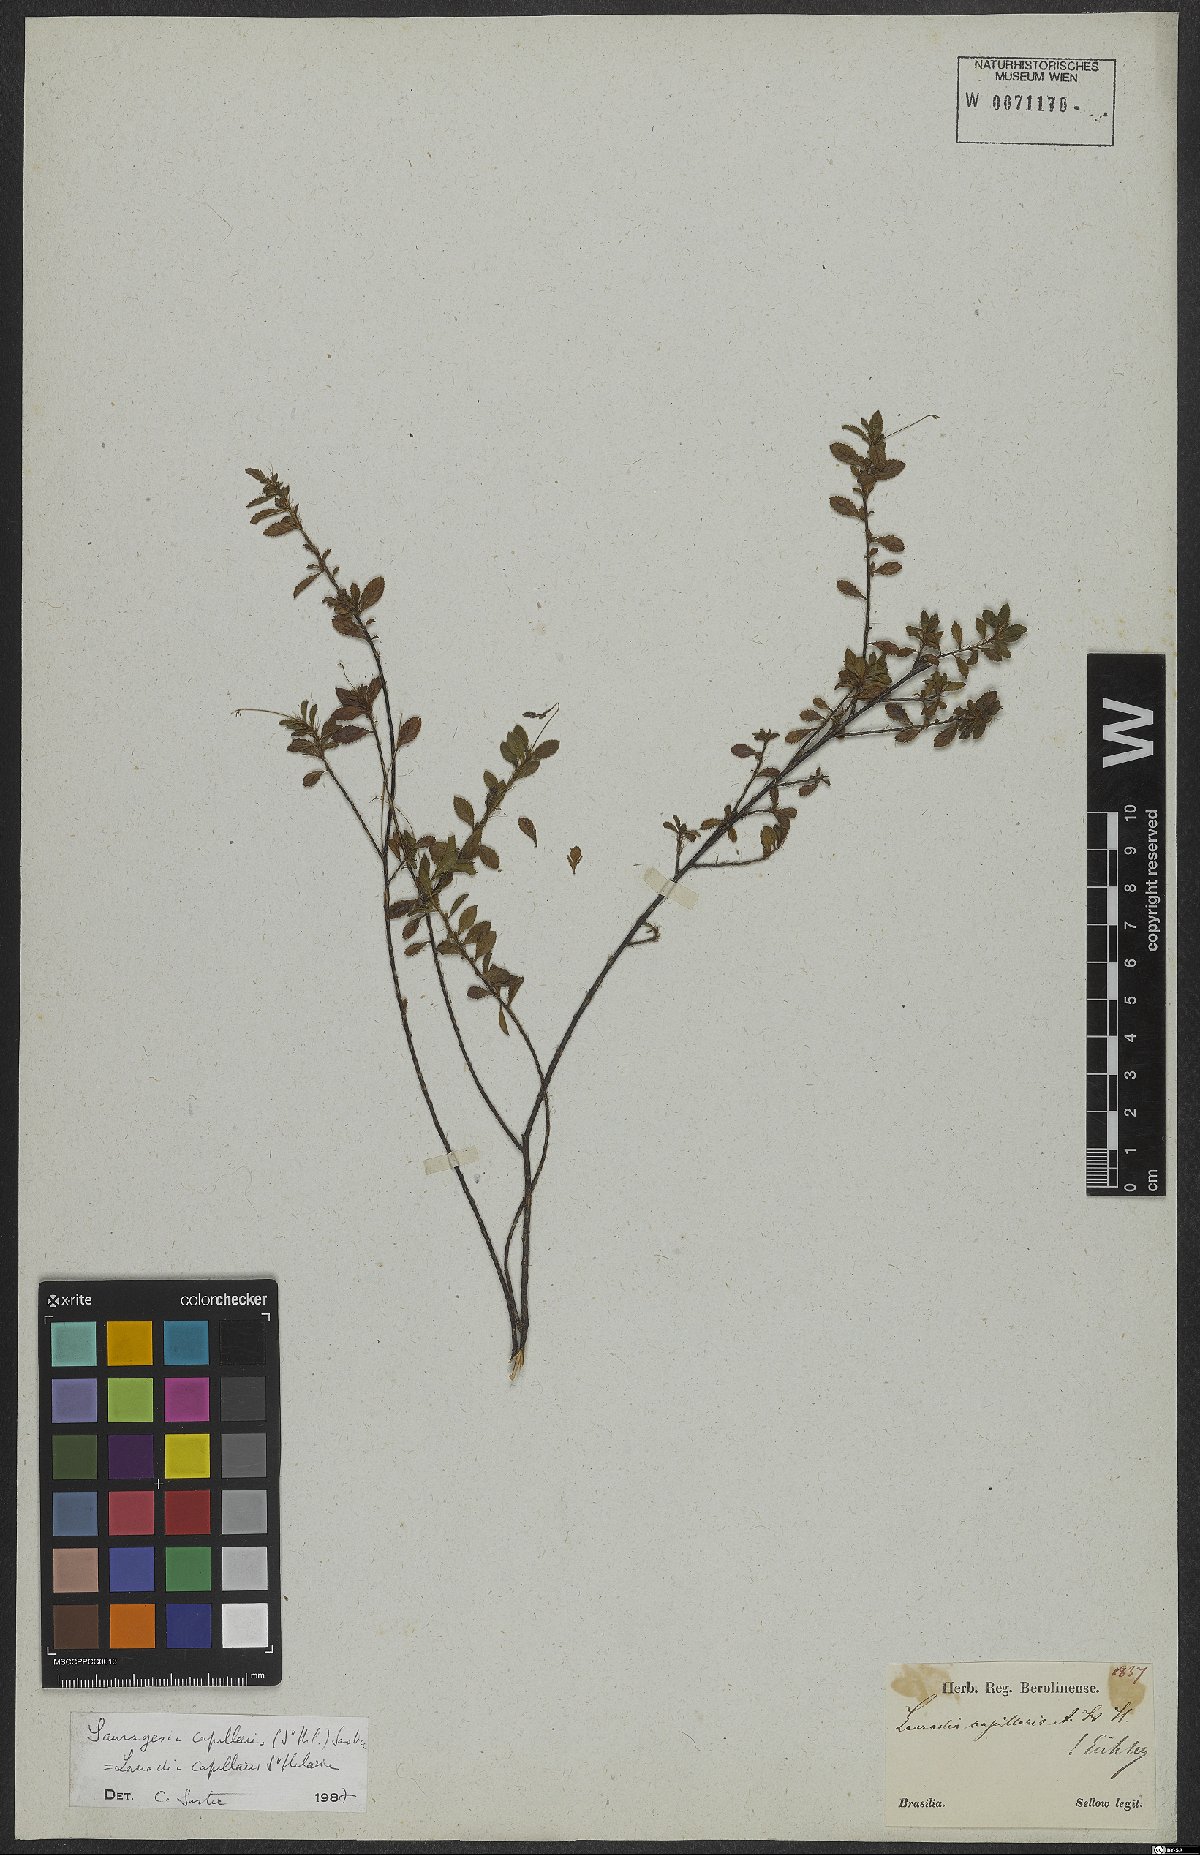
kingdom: Plantae
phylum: Tracheophyta
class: Magnoliopsida
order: Malpighiales
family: Ochnaceae
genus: Sauvagesia
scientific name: Sauvagesia capillaris
